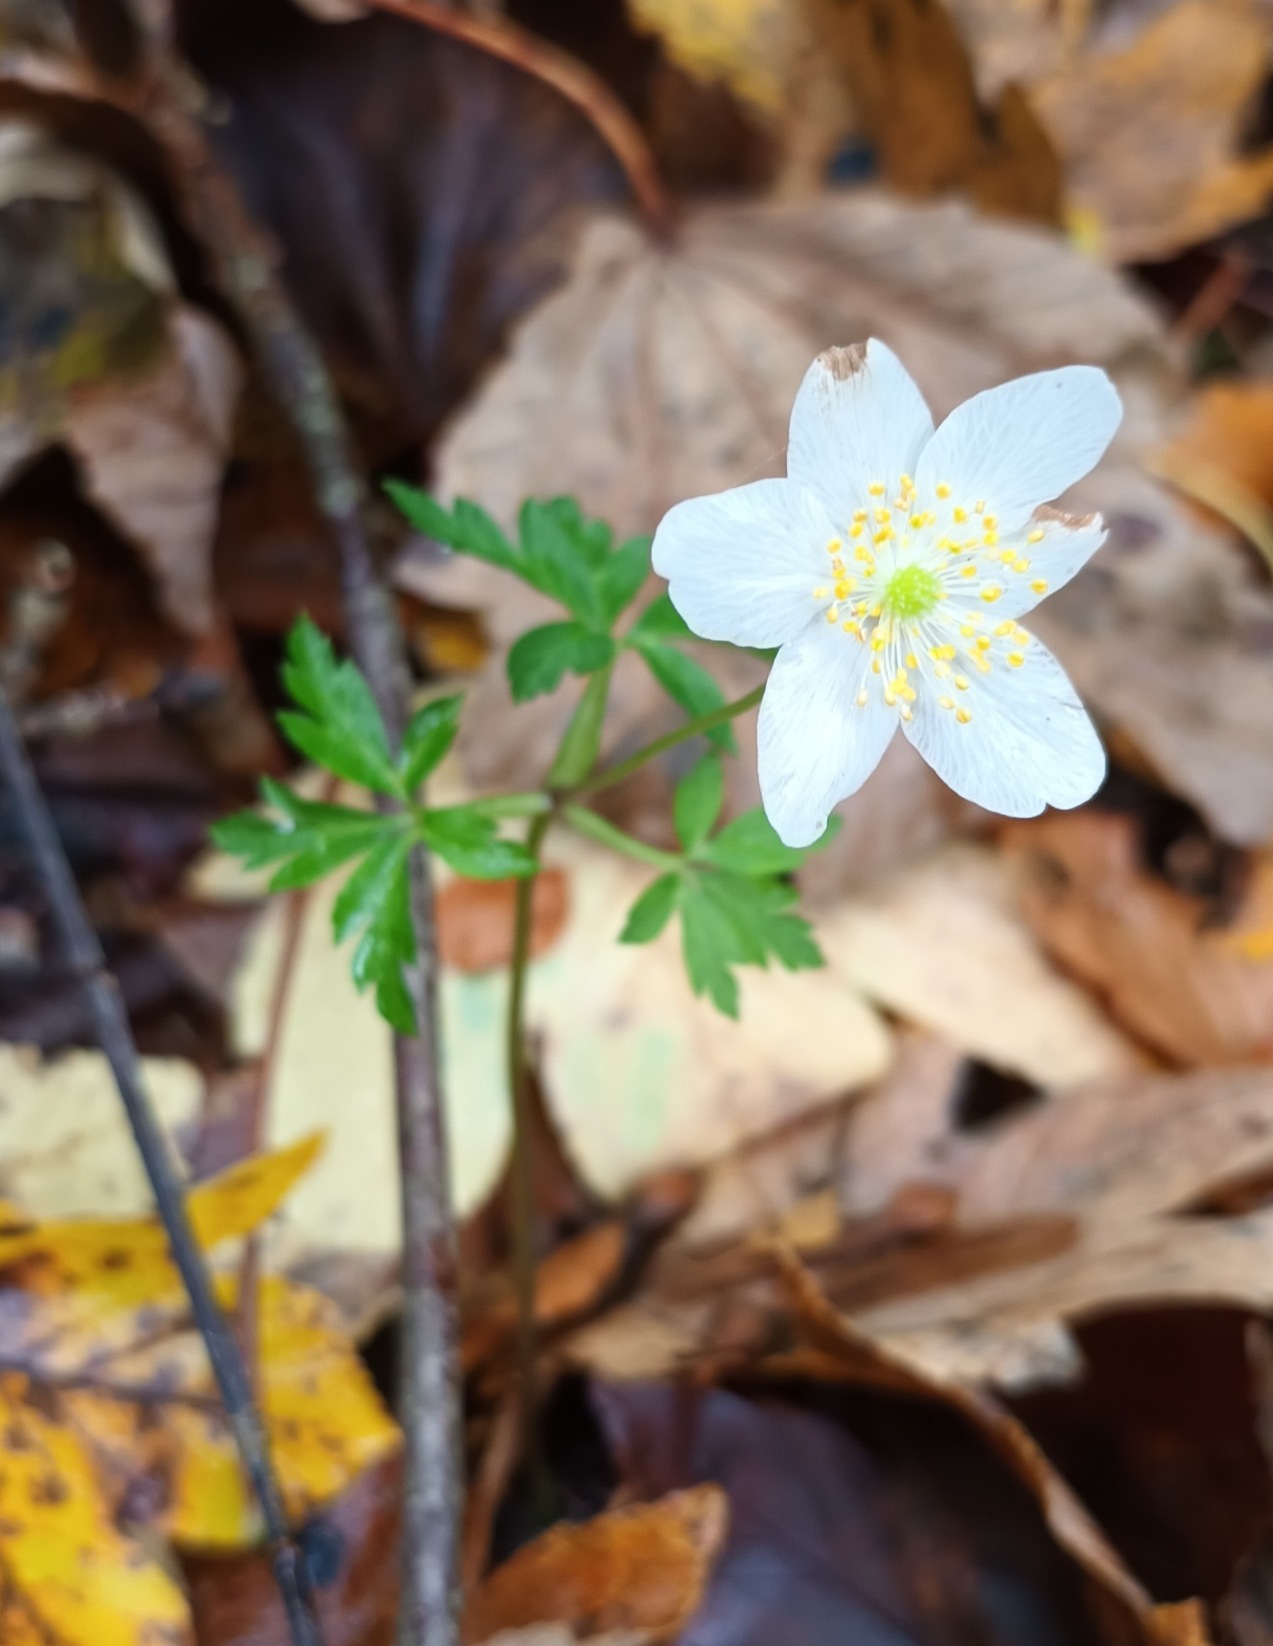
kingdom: Plantae
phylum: Tracheophyta
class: Magnoliopsida
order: Ranunculales
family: Ranunculaceae
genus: Anemone
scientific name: Anemone nemorosa
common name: Hvid anemone
